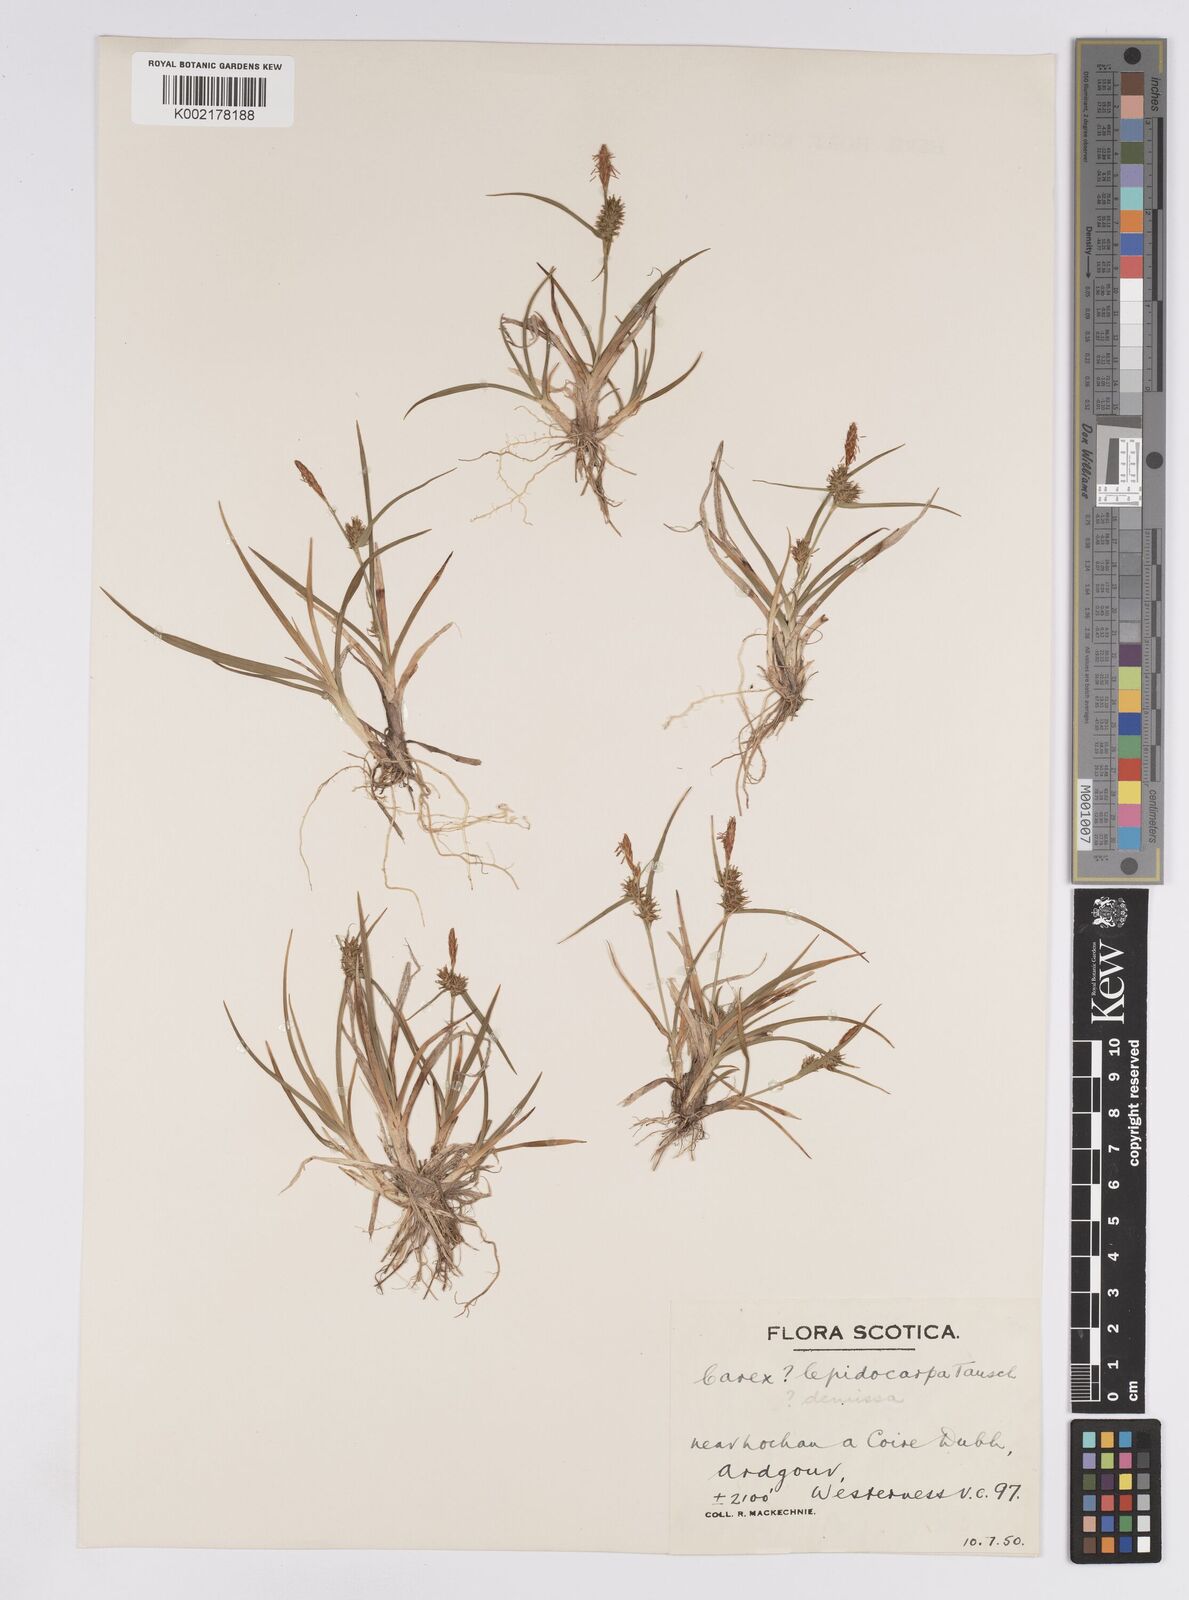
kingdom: Plantae
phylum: Tracheophyta
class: Liliopsida
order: Poales
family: Cyperaceae
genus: Carex
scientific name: Carex demissa
